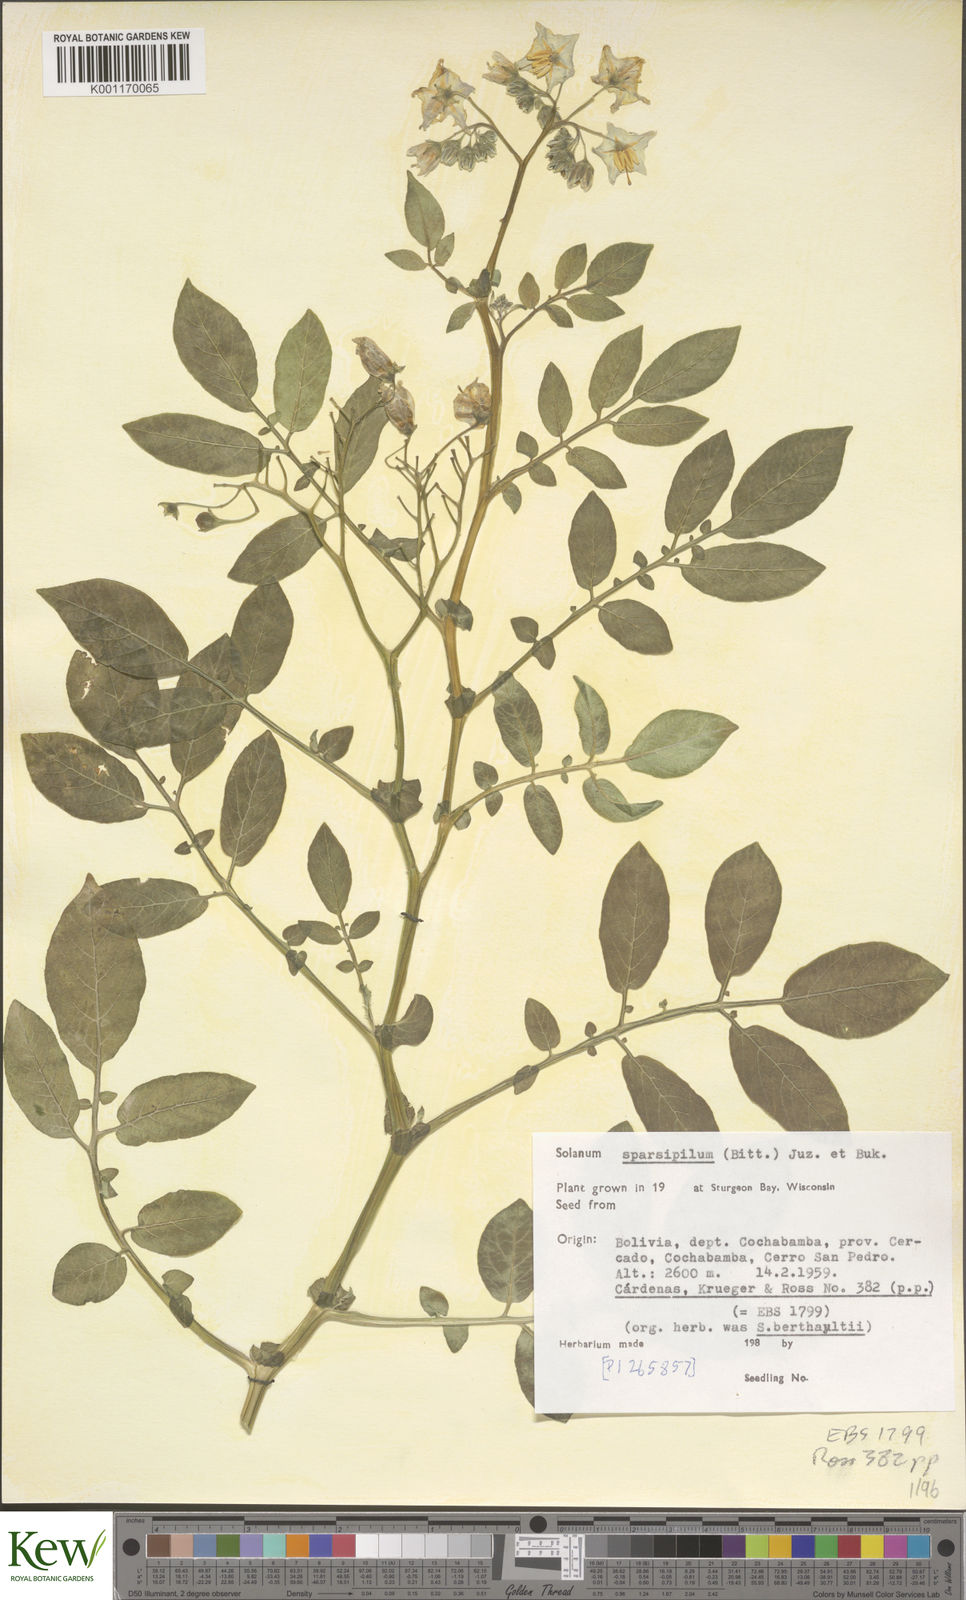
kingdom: Plantae
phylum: Tracheophyta
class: Magnoliopsida
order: Solanales
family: Solanaceae
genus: Solanum
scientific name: Solanum brevicaule
